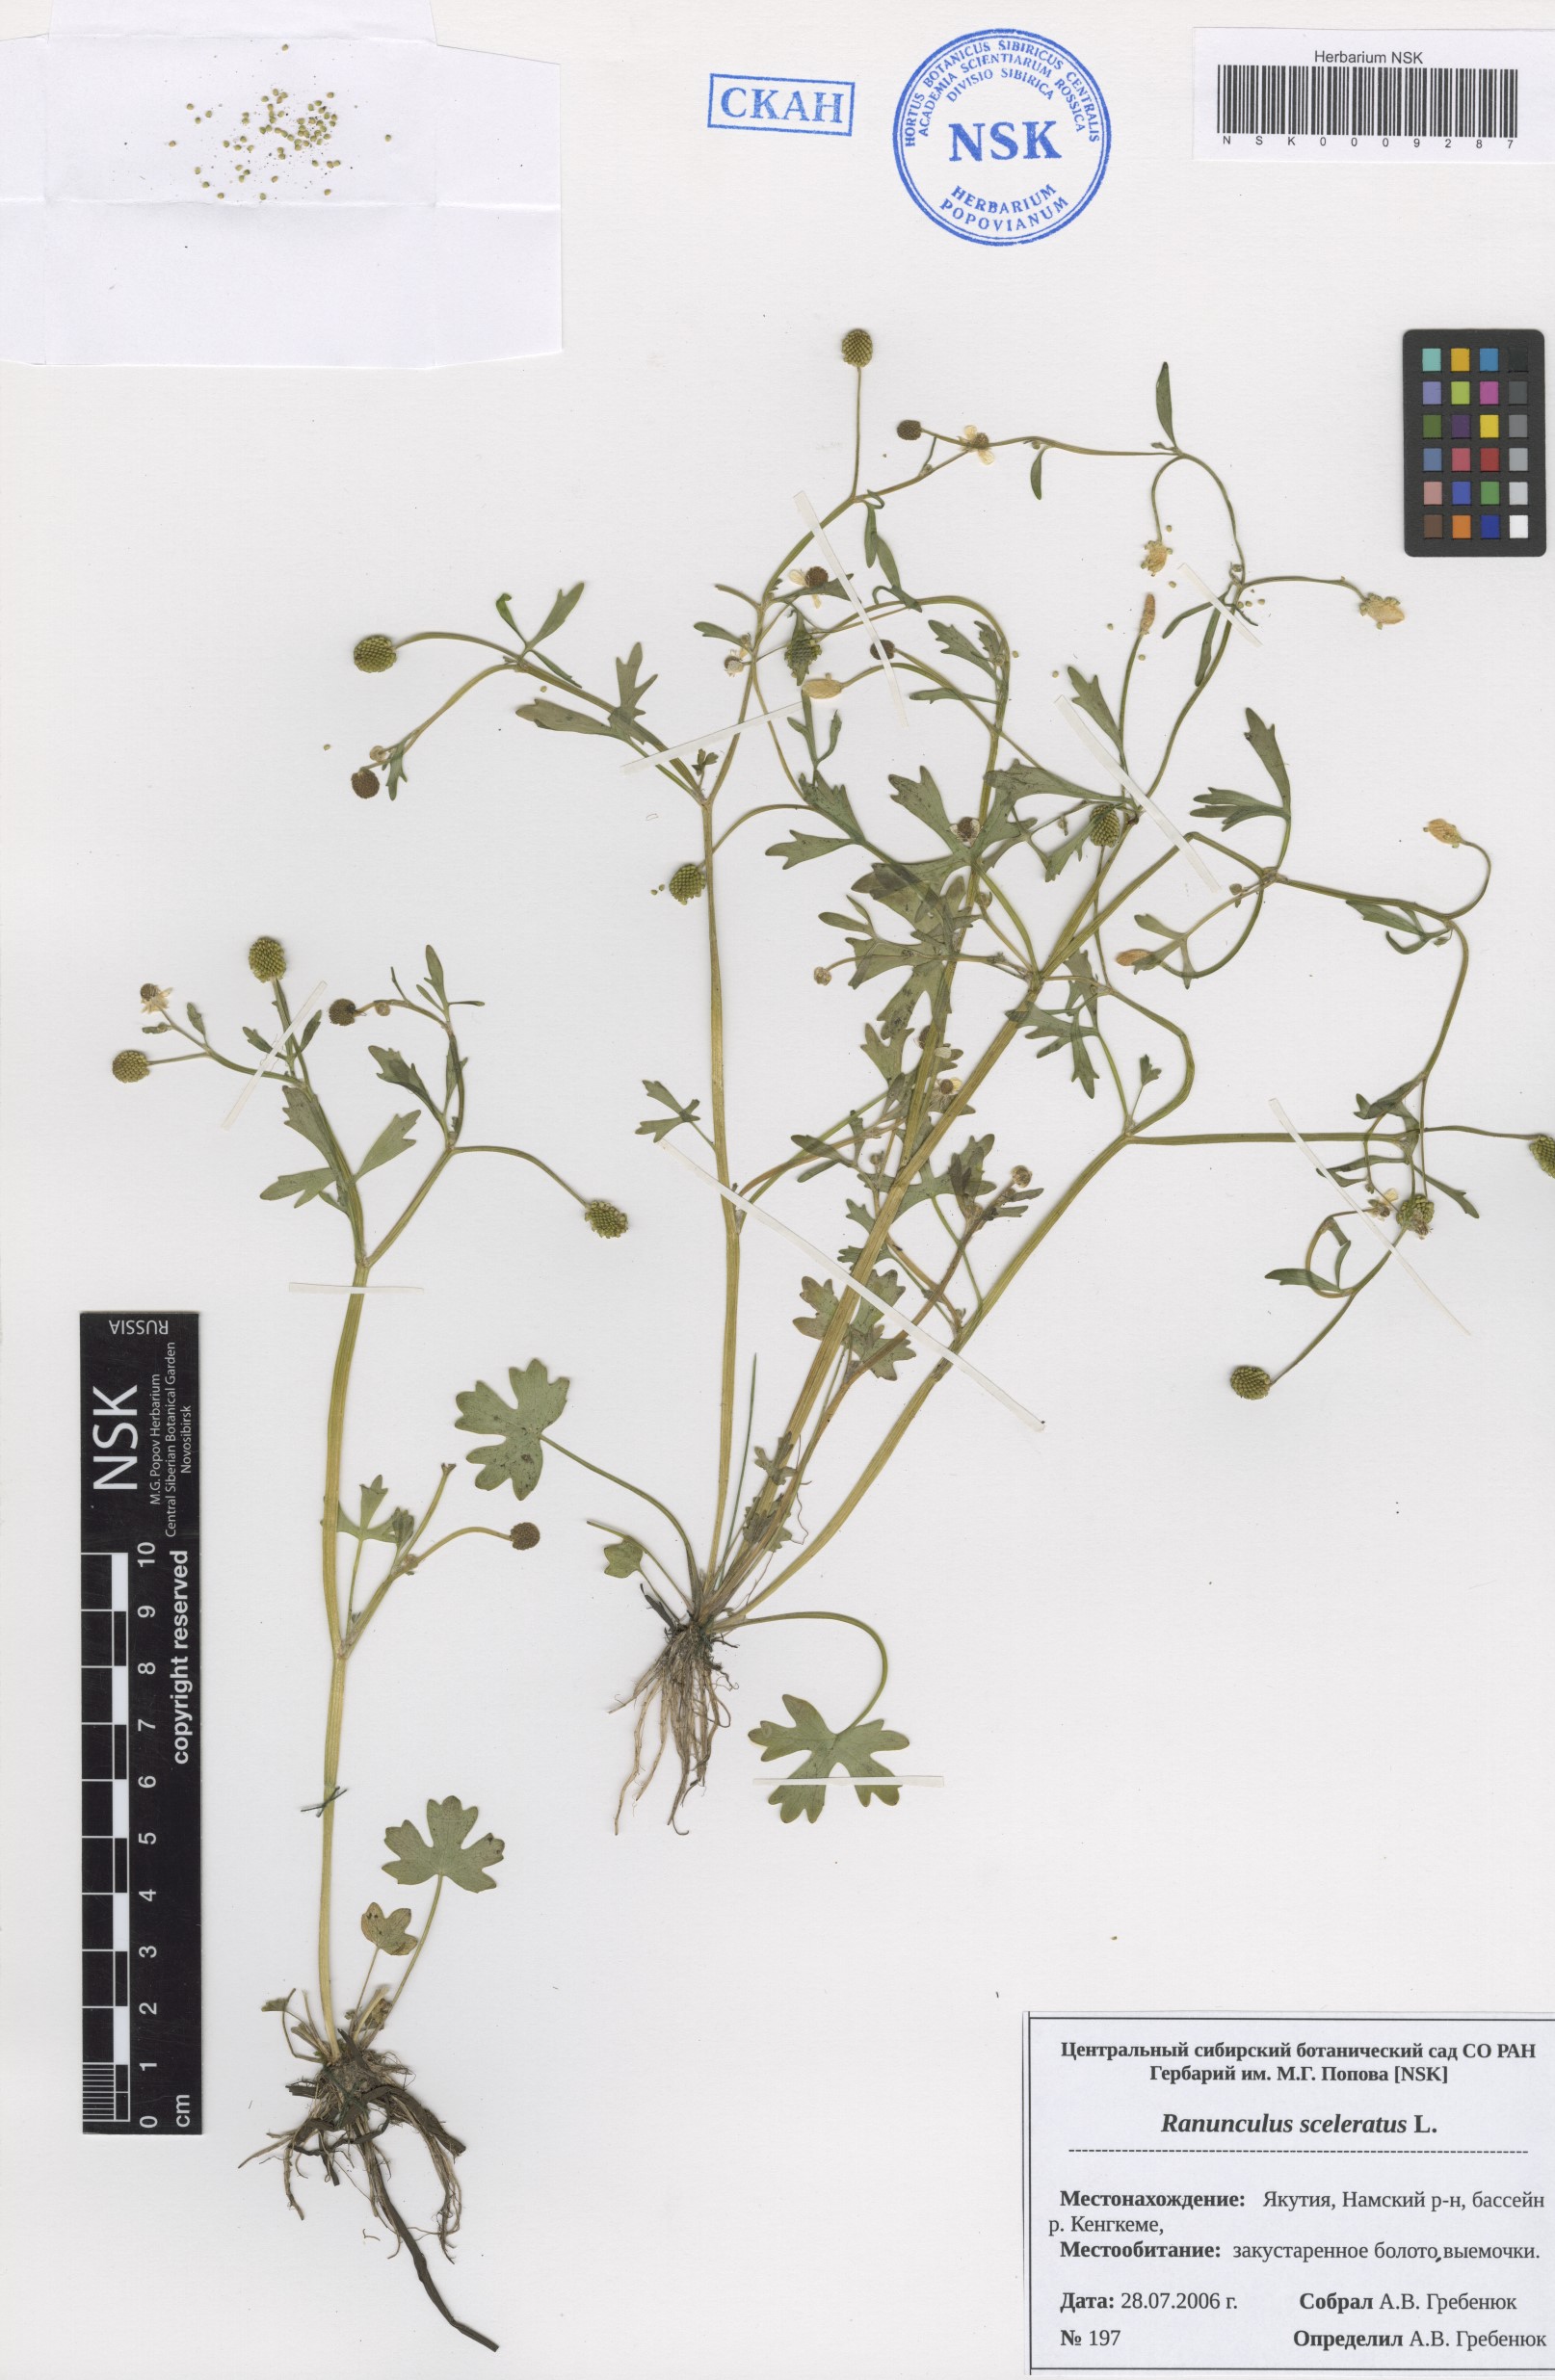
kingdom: Plantae
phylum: Tracheophyta
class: Magnoliopsida
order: Ranunculales
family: Ranunculaceae
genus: Ranunculus
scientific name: Ranunculus sceleratus
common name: Celery-leaved buttercup
